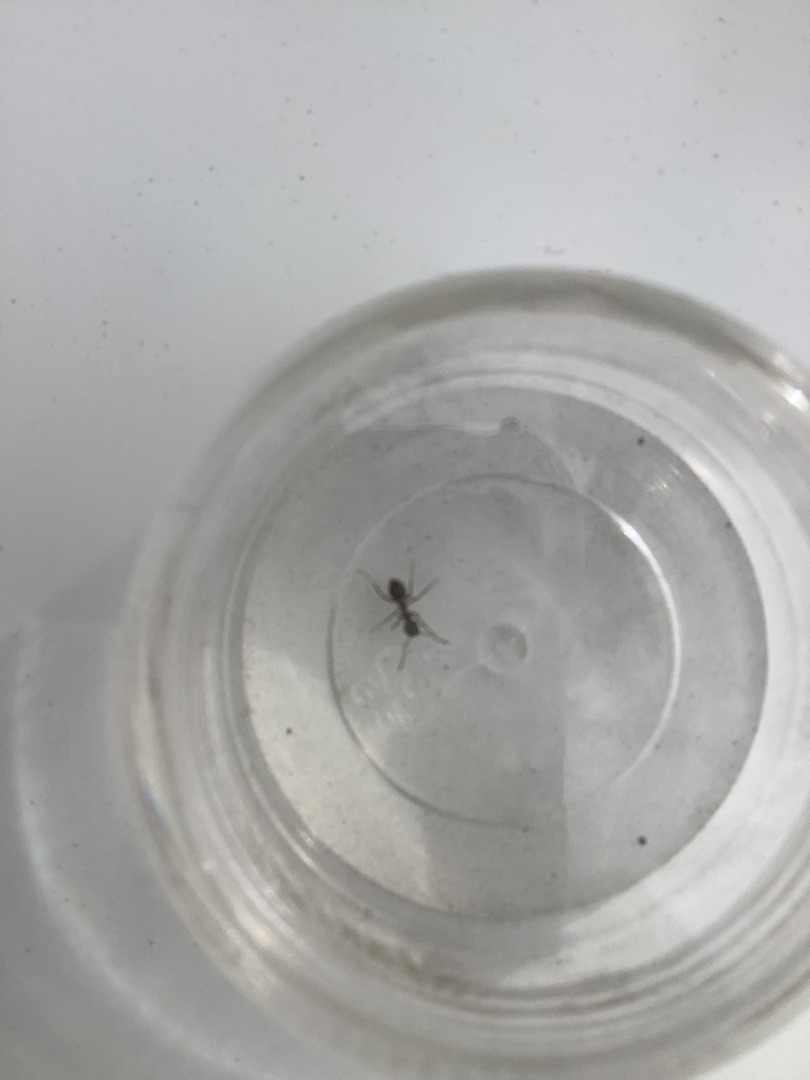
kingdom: Animalia
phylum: Arthropoda
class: Insecta
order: Hymenoptera
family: Formicidae
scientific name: Formicidae
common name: Myrer
